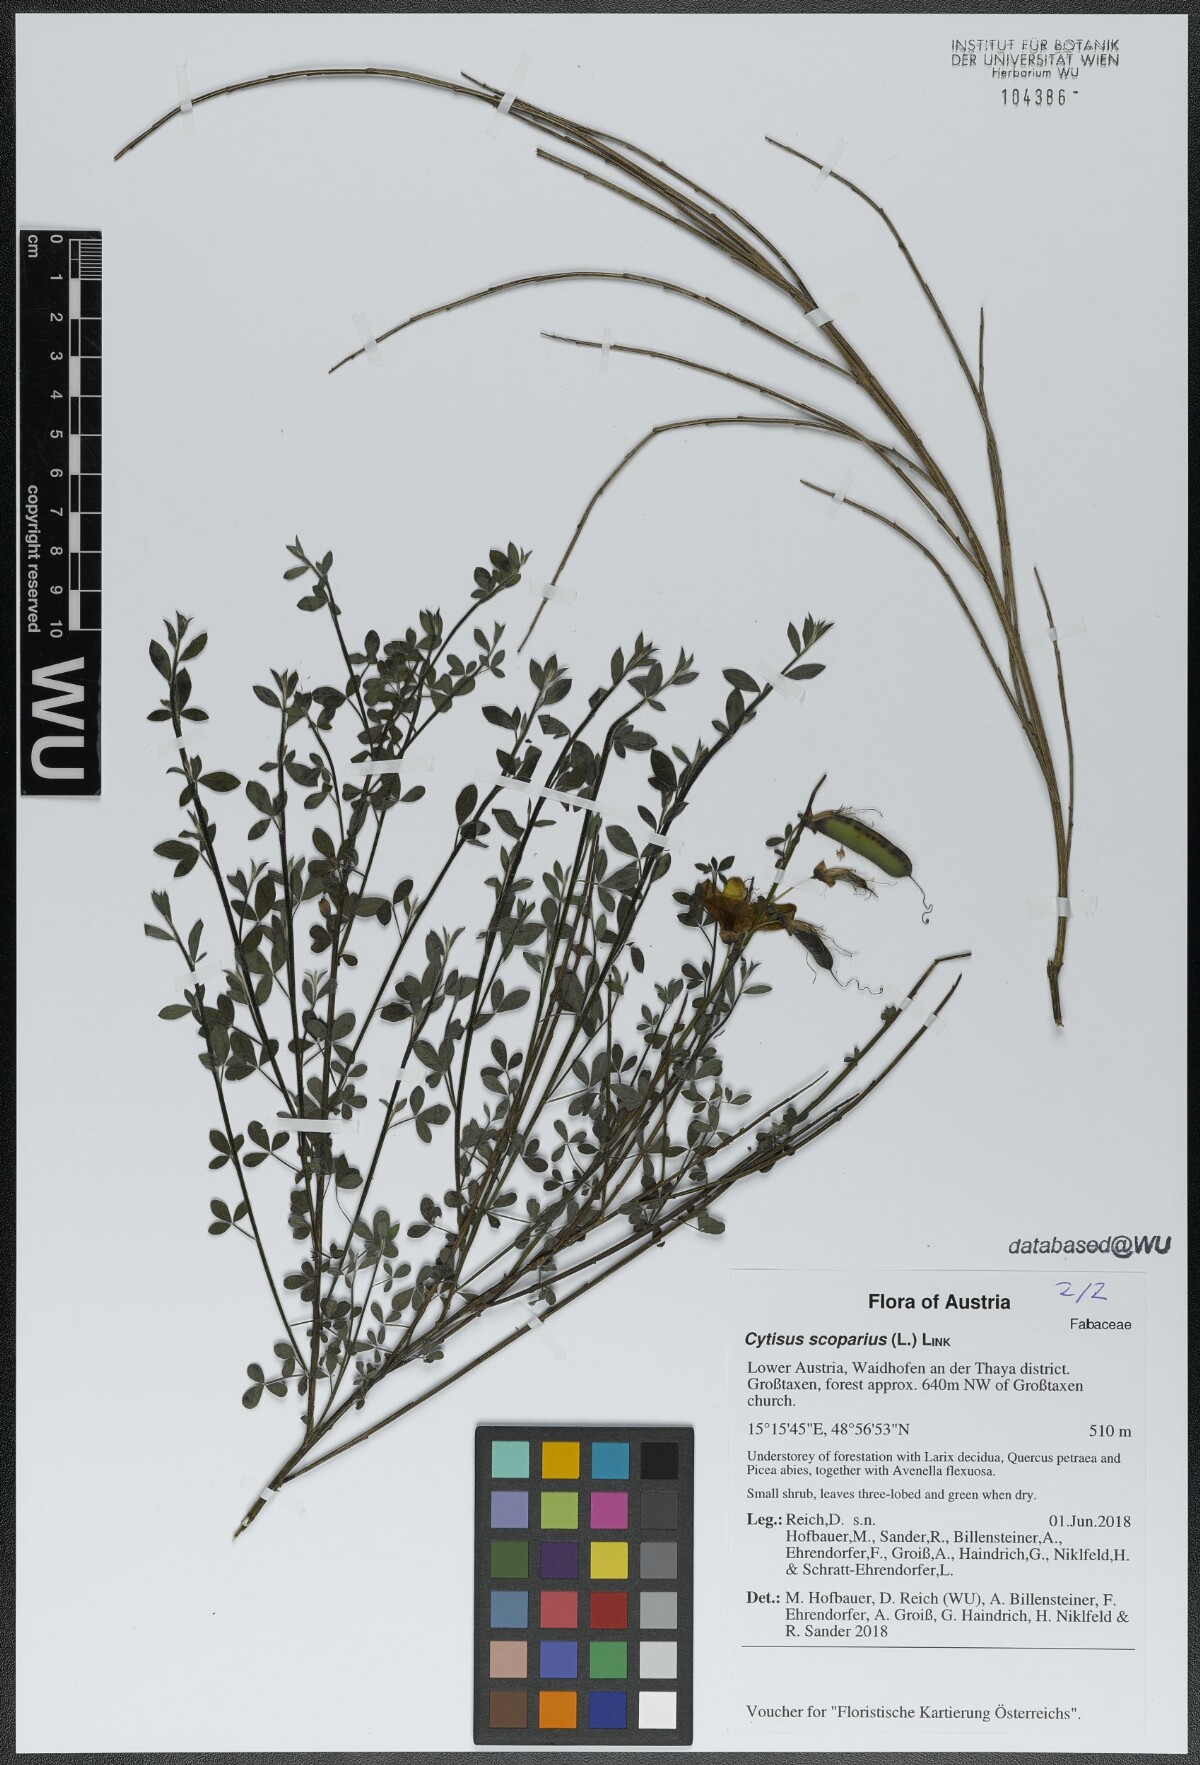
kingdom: Plantae
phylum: Tracheophyta
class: Magnoliopsida
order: Fabales
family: Fabaceae
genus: Cytisus
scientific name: Cytisus scoparius
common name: Scotch broom
